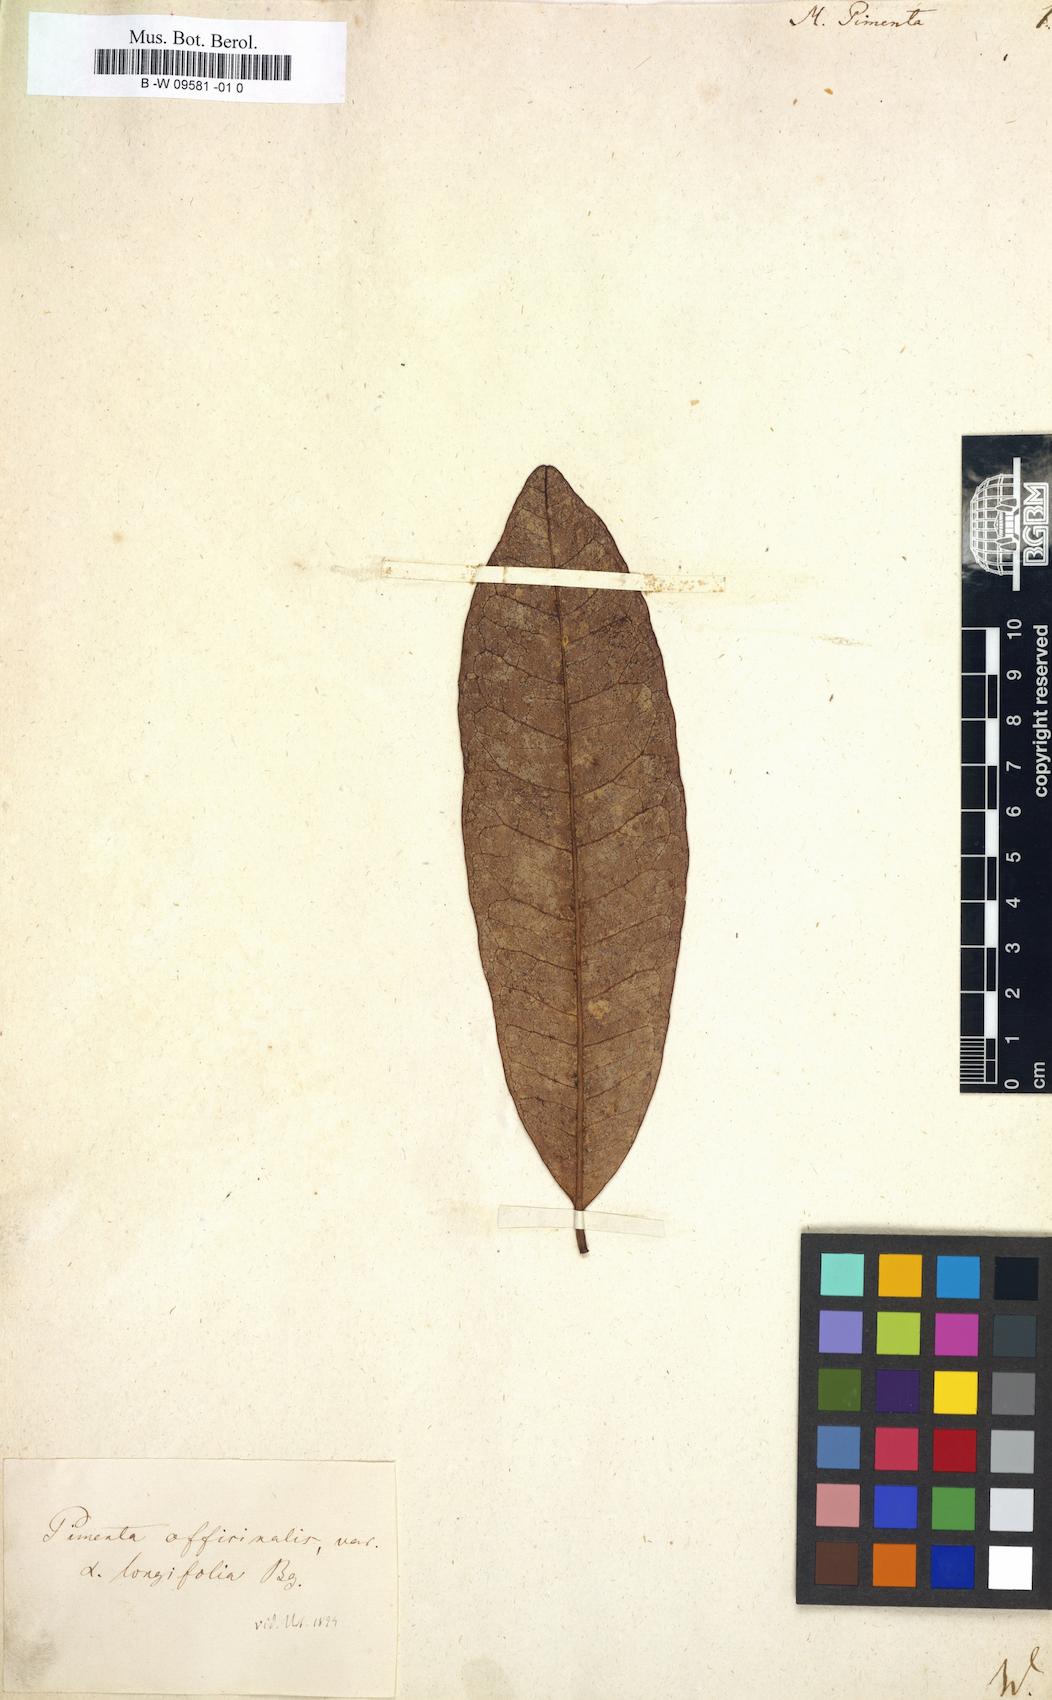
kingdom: Plantae
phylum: Tracheophyta
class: Magnoliopsida
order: Myrtales
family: Myrtaceae
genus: Pimenta
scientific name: Pimenta dioica
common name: Allspice
